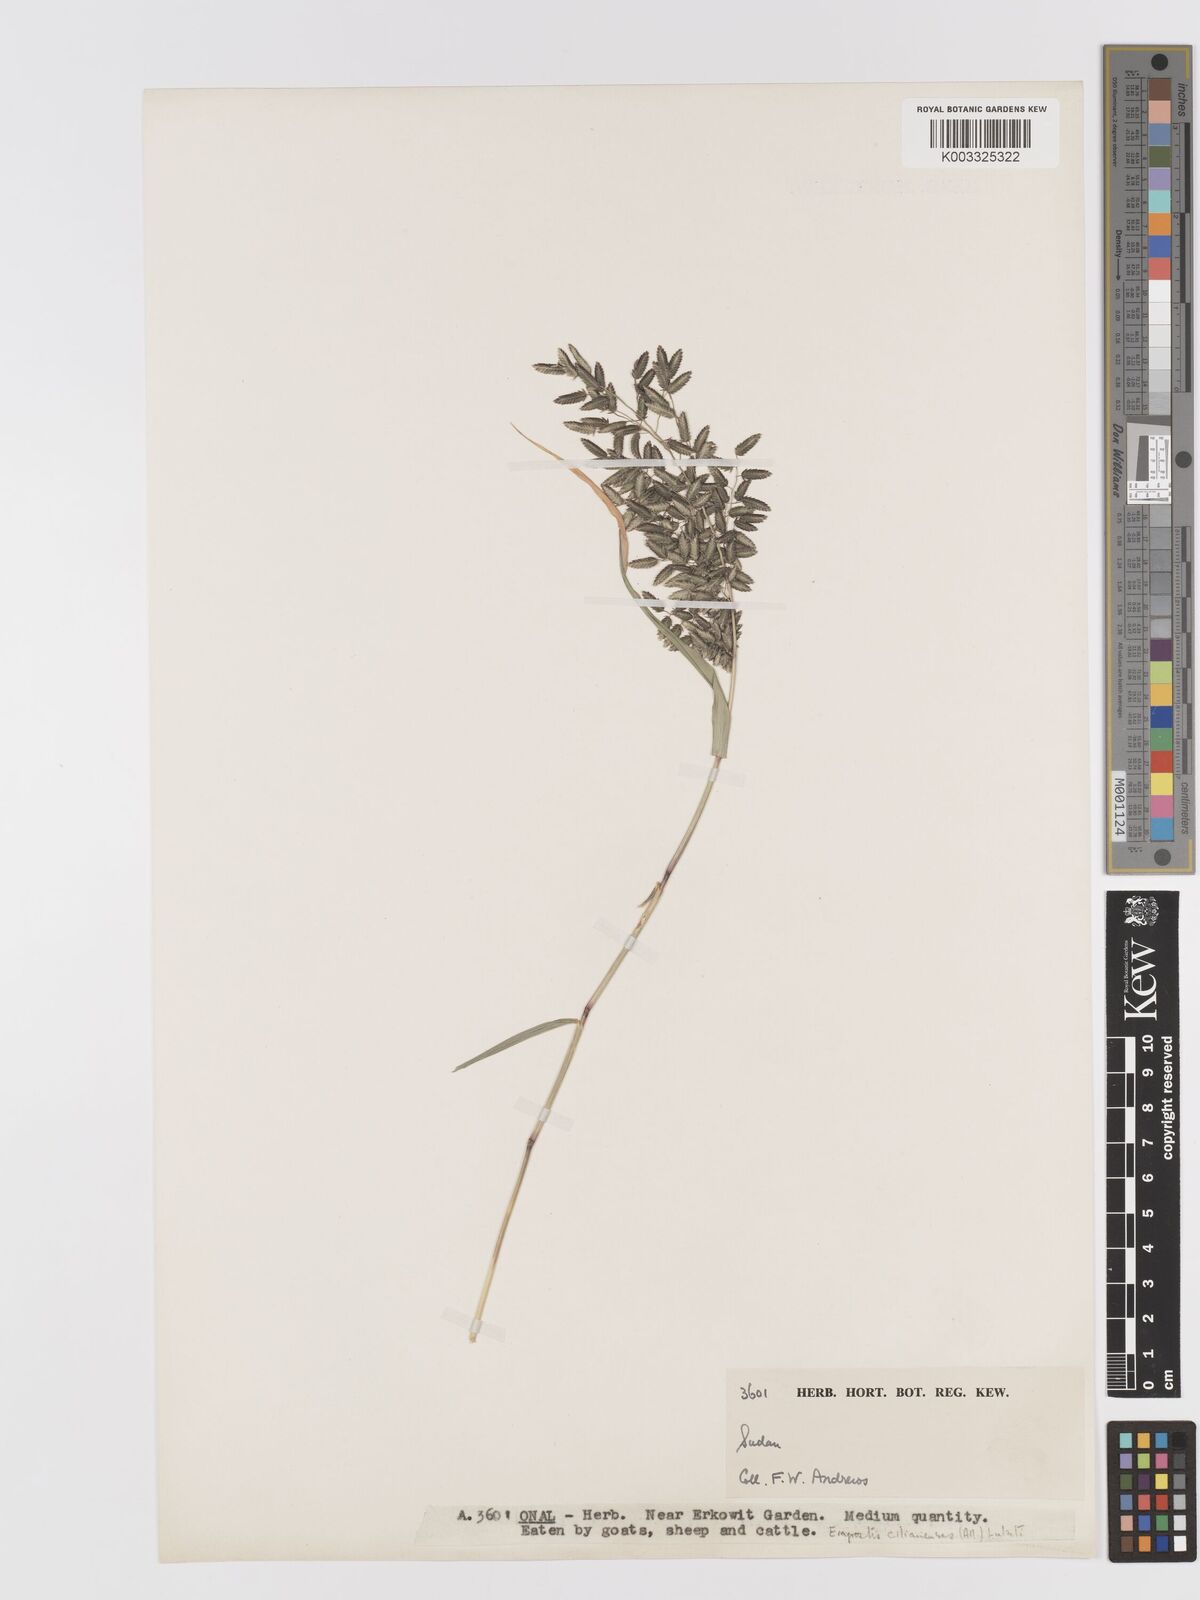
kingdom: Plantae
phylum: Tracheophyta
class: Liliopsida
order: Poales
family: Poaceae
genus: Eragrostis
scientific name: Eragrostis cilianensis
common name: Stinkgrass
